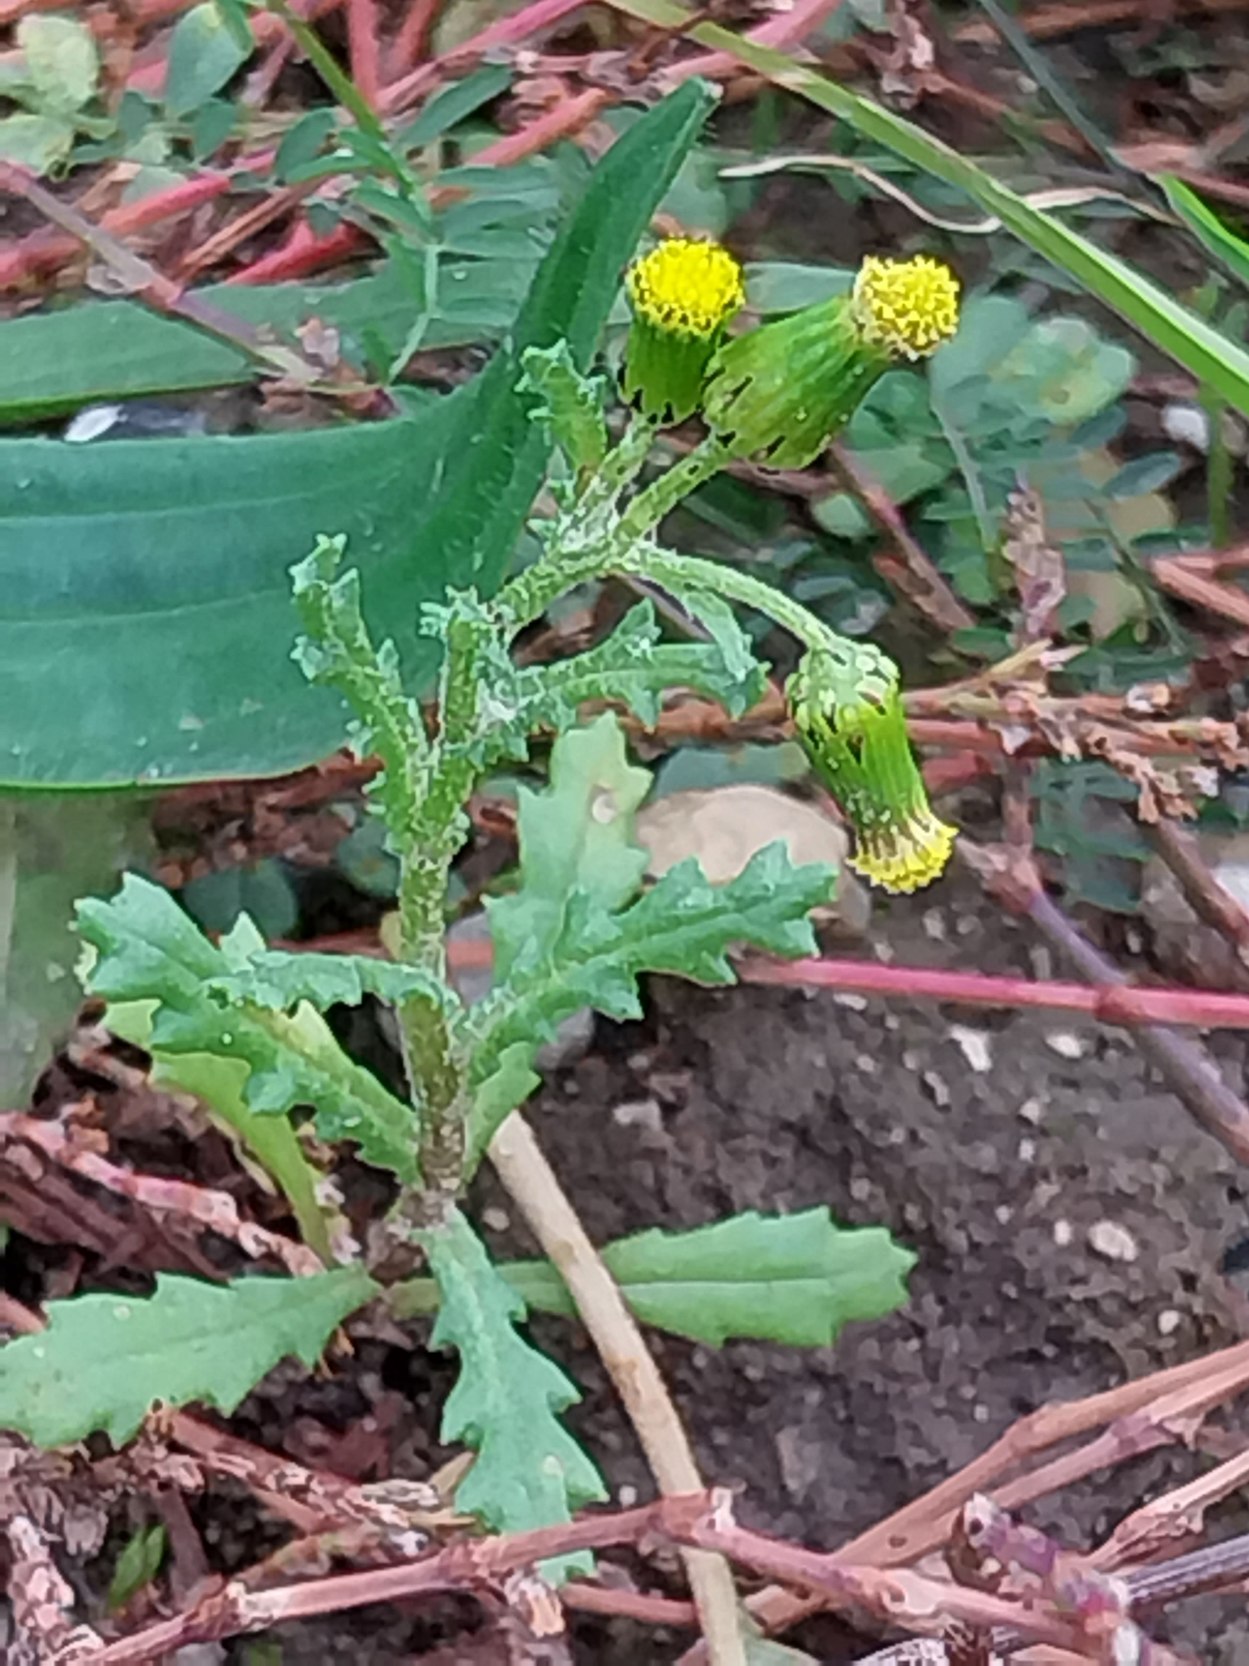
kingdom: Plantae
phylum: Tracheophyta
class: Magnoliopsida
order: Asterales
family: Asteraceae
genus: Senecio
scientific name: Senecio vulgaris
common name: Almindelig brandbæger
